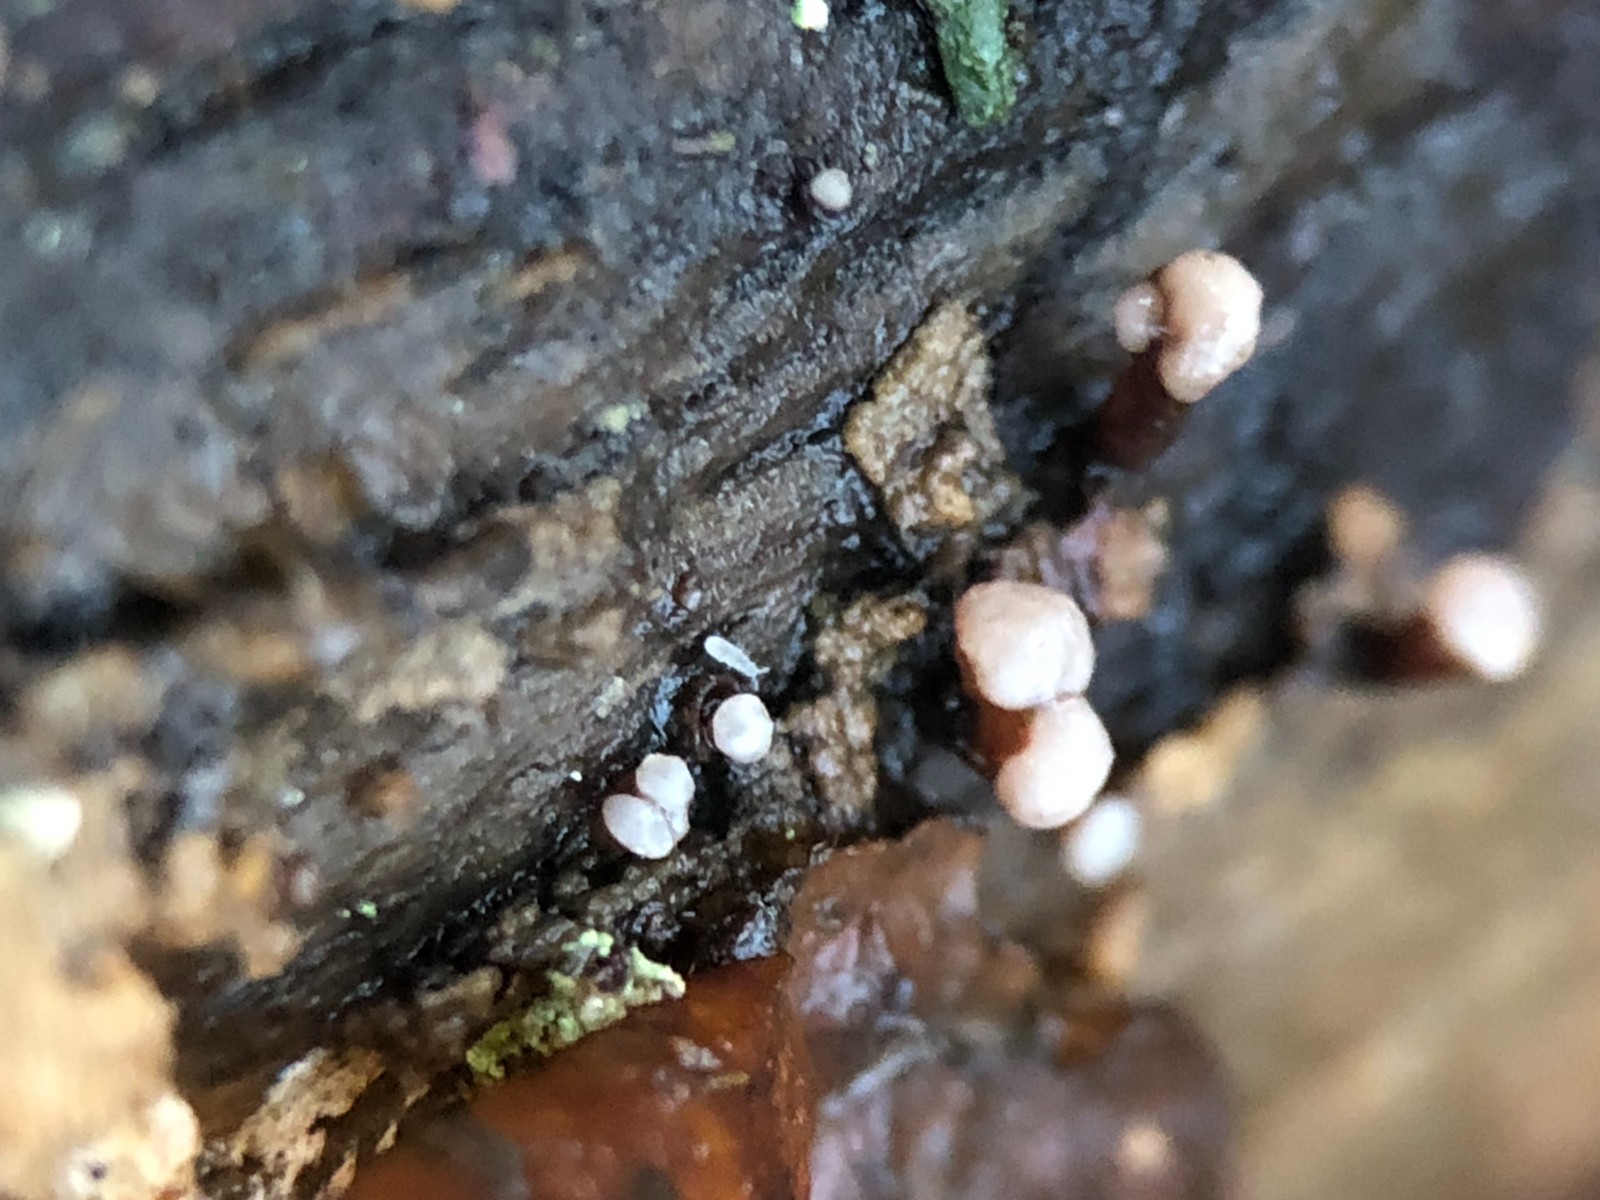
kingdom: Fungi
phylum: Ascomycota
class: Leotiomycetes
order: Helotiales
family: Gelatinodiscaceae
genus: Ascocoryne
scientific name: Ascocoryne albida
